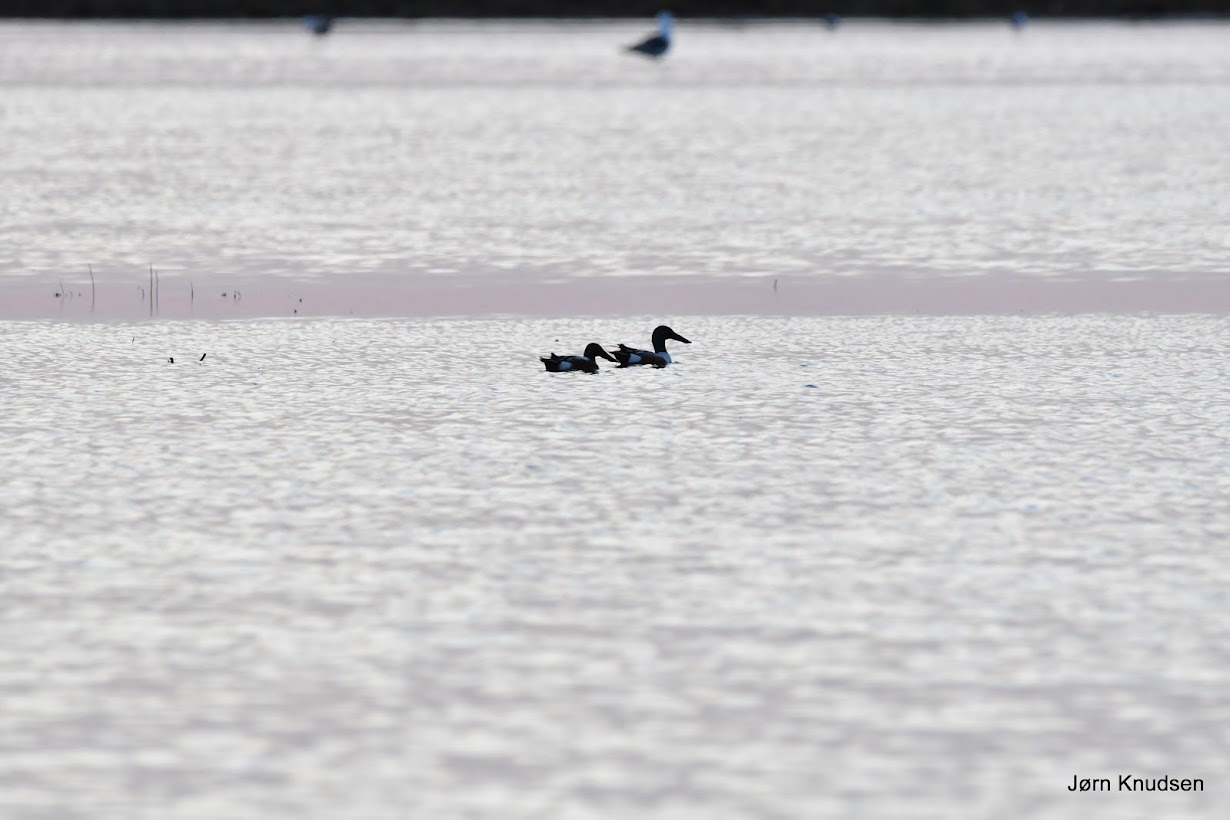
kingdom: Animalia
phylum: Chordata
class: Aves
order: Anseriformes
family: Anatidae
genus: Spatula
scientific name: Spatula clypeata
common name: Skeand
